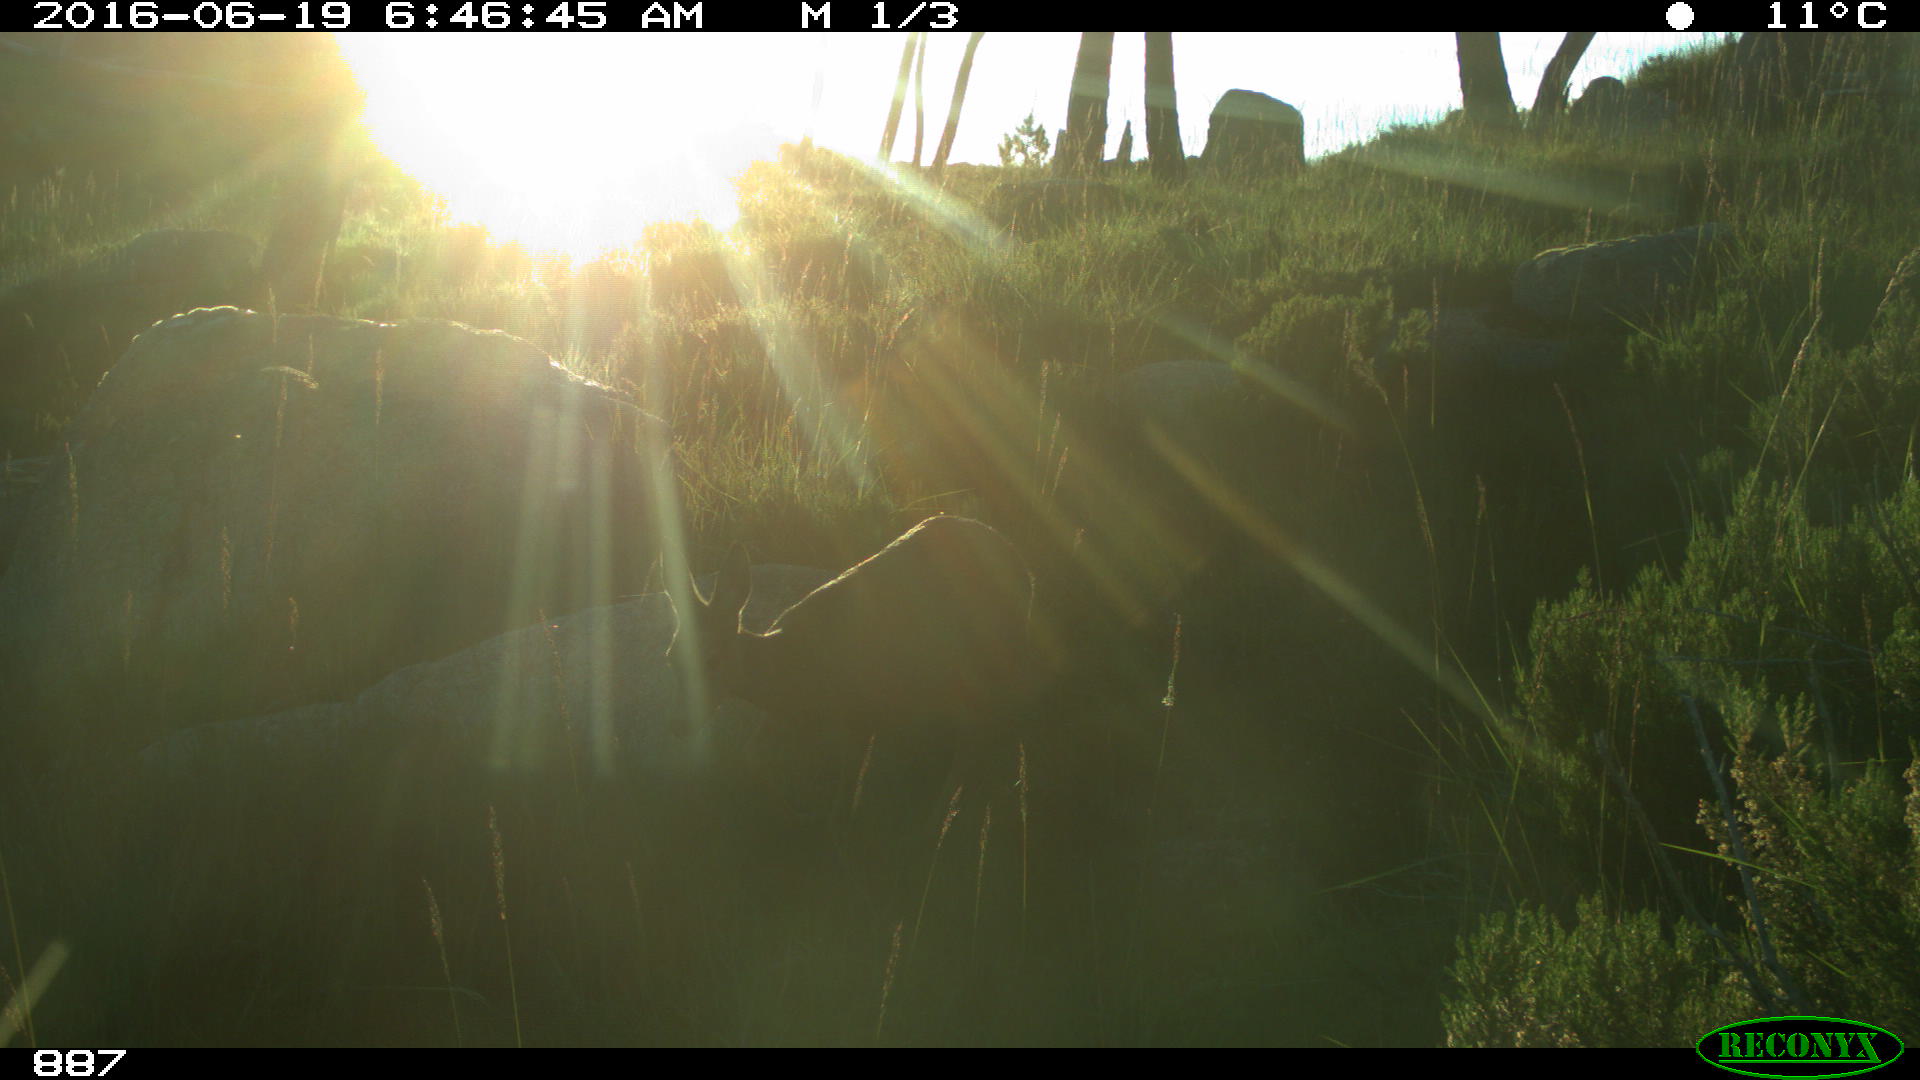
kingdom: Animalia
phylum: Chordata
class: Mammalia
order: Artiodactyla
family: Cervidae
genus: Capreolus
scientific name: Capreolus capreolus
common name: Western roe deer
